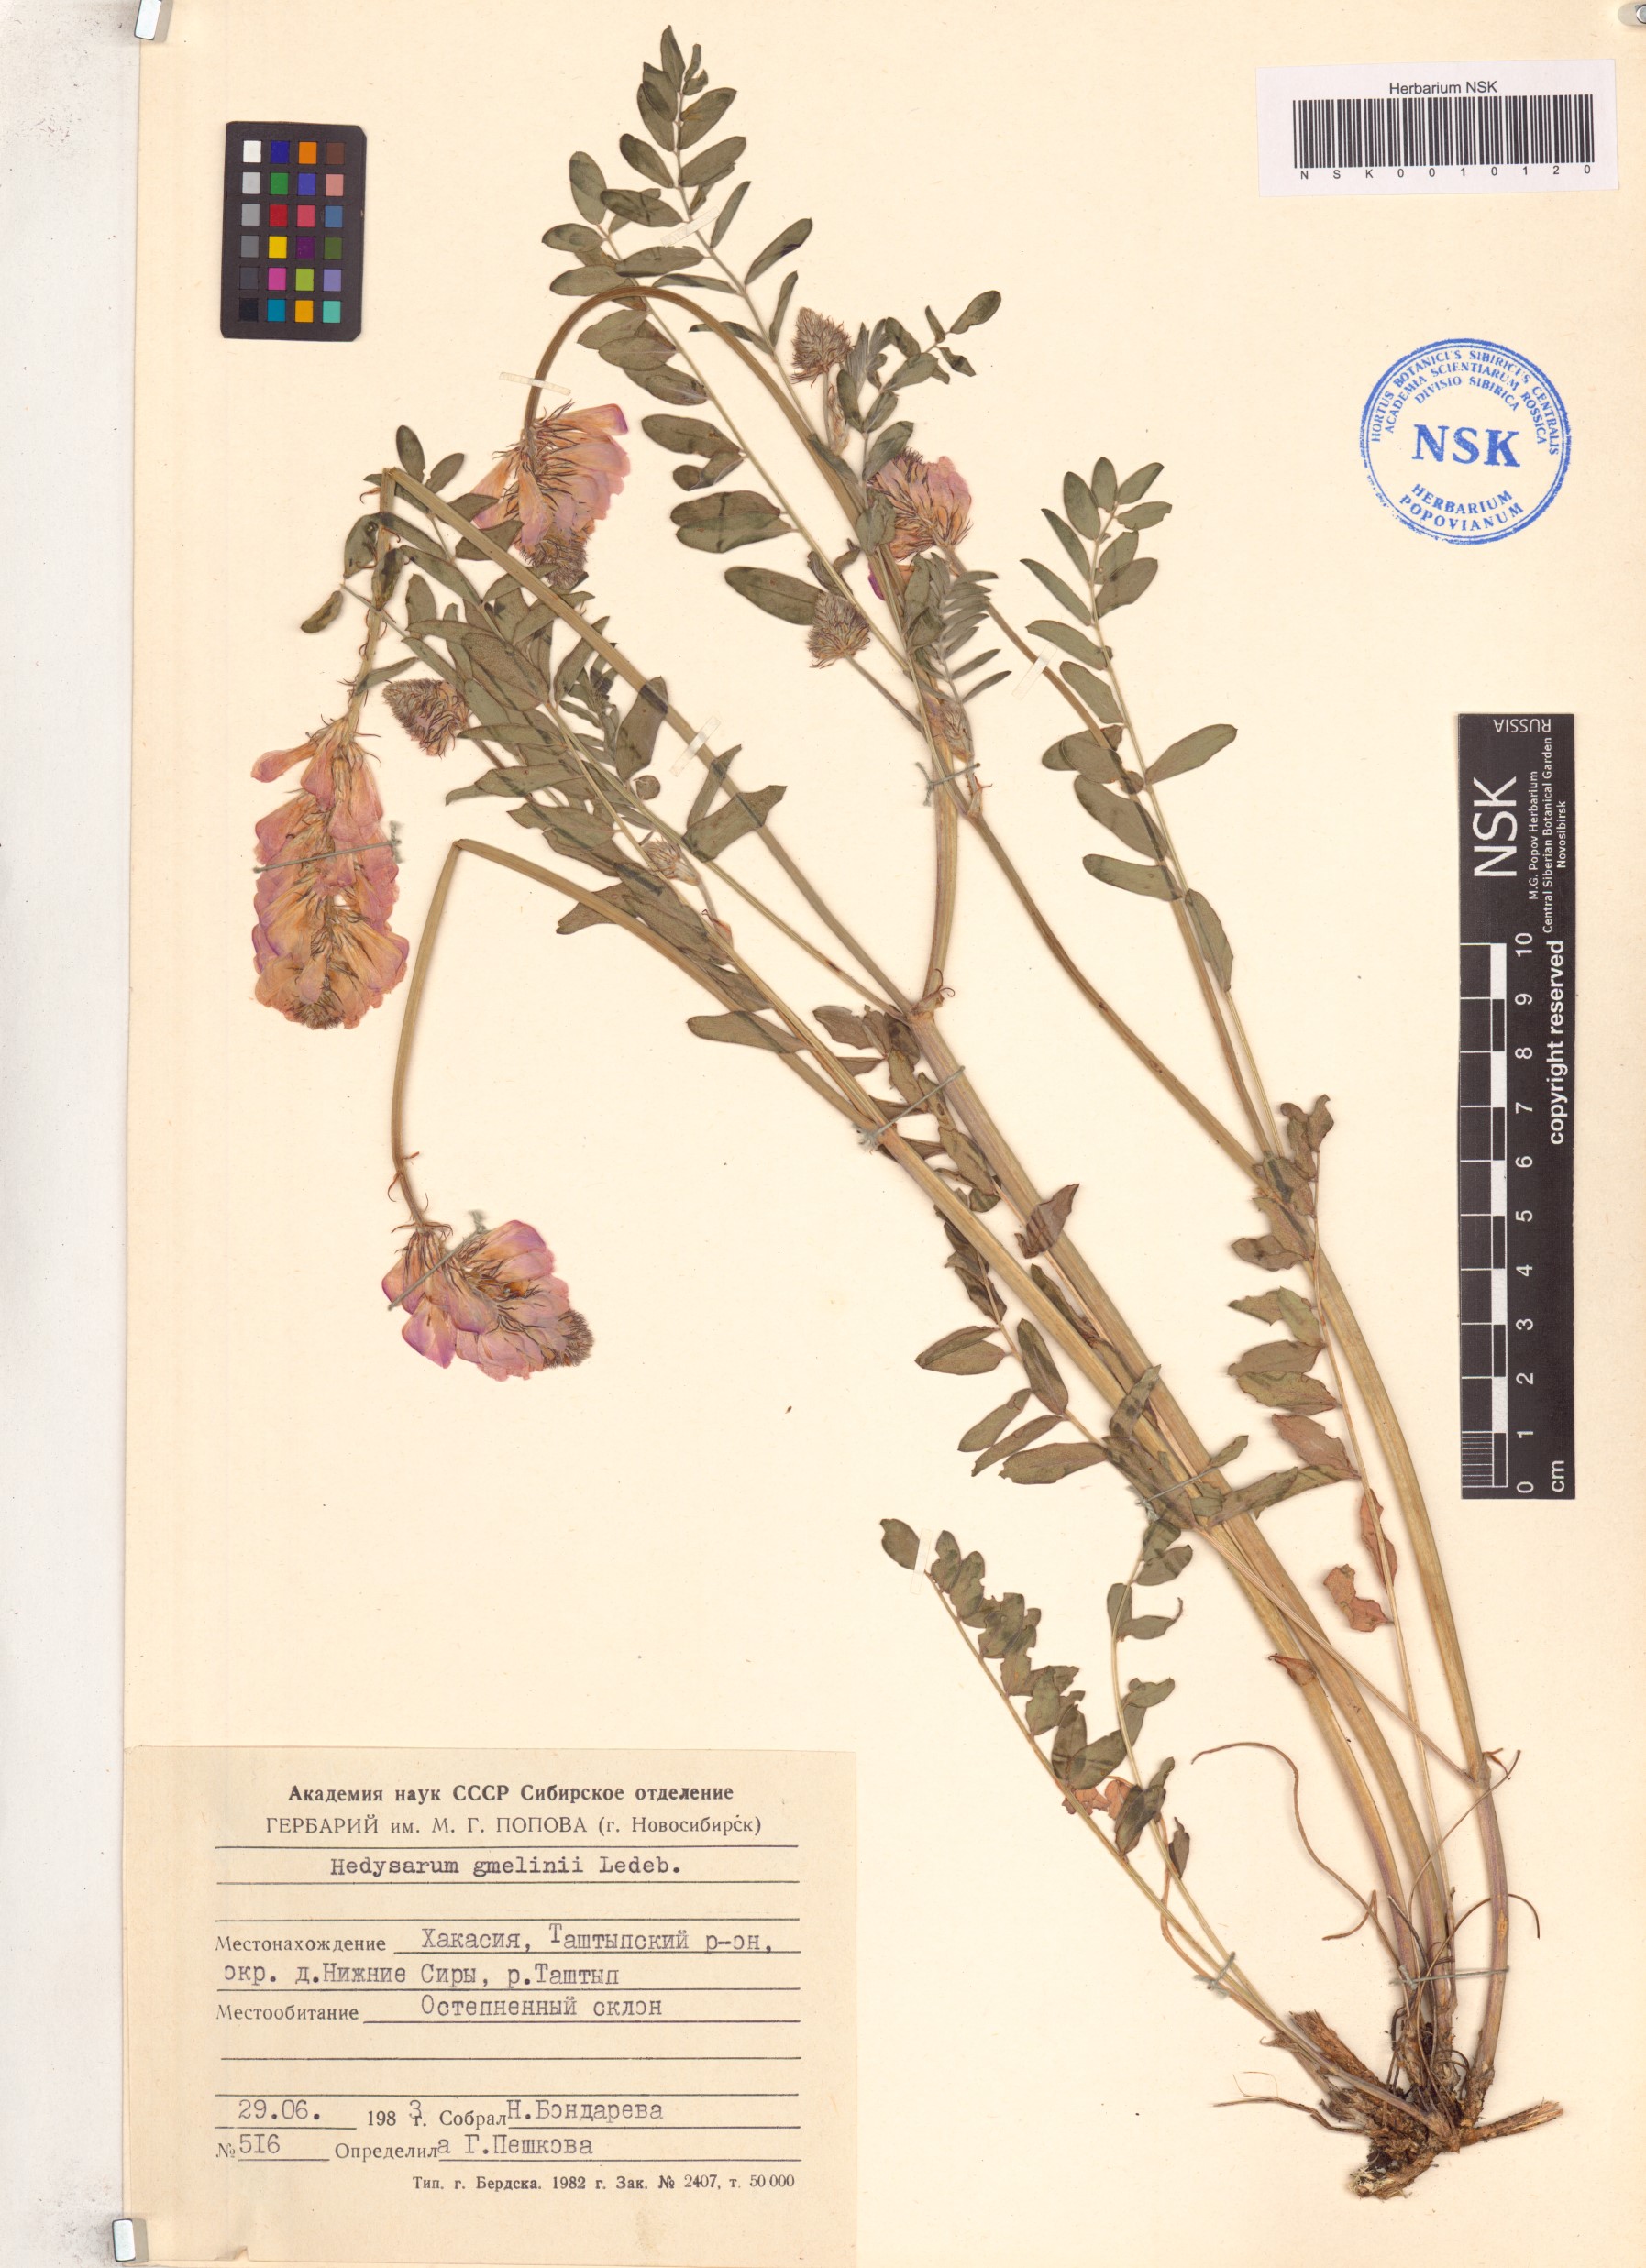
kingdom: Plantae
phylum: Tracheophyta
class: Magnoliopsida
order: Fabales
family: Fabaceae
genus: Hedysarum
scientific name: Hedysarum gmelinii
